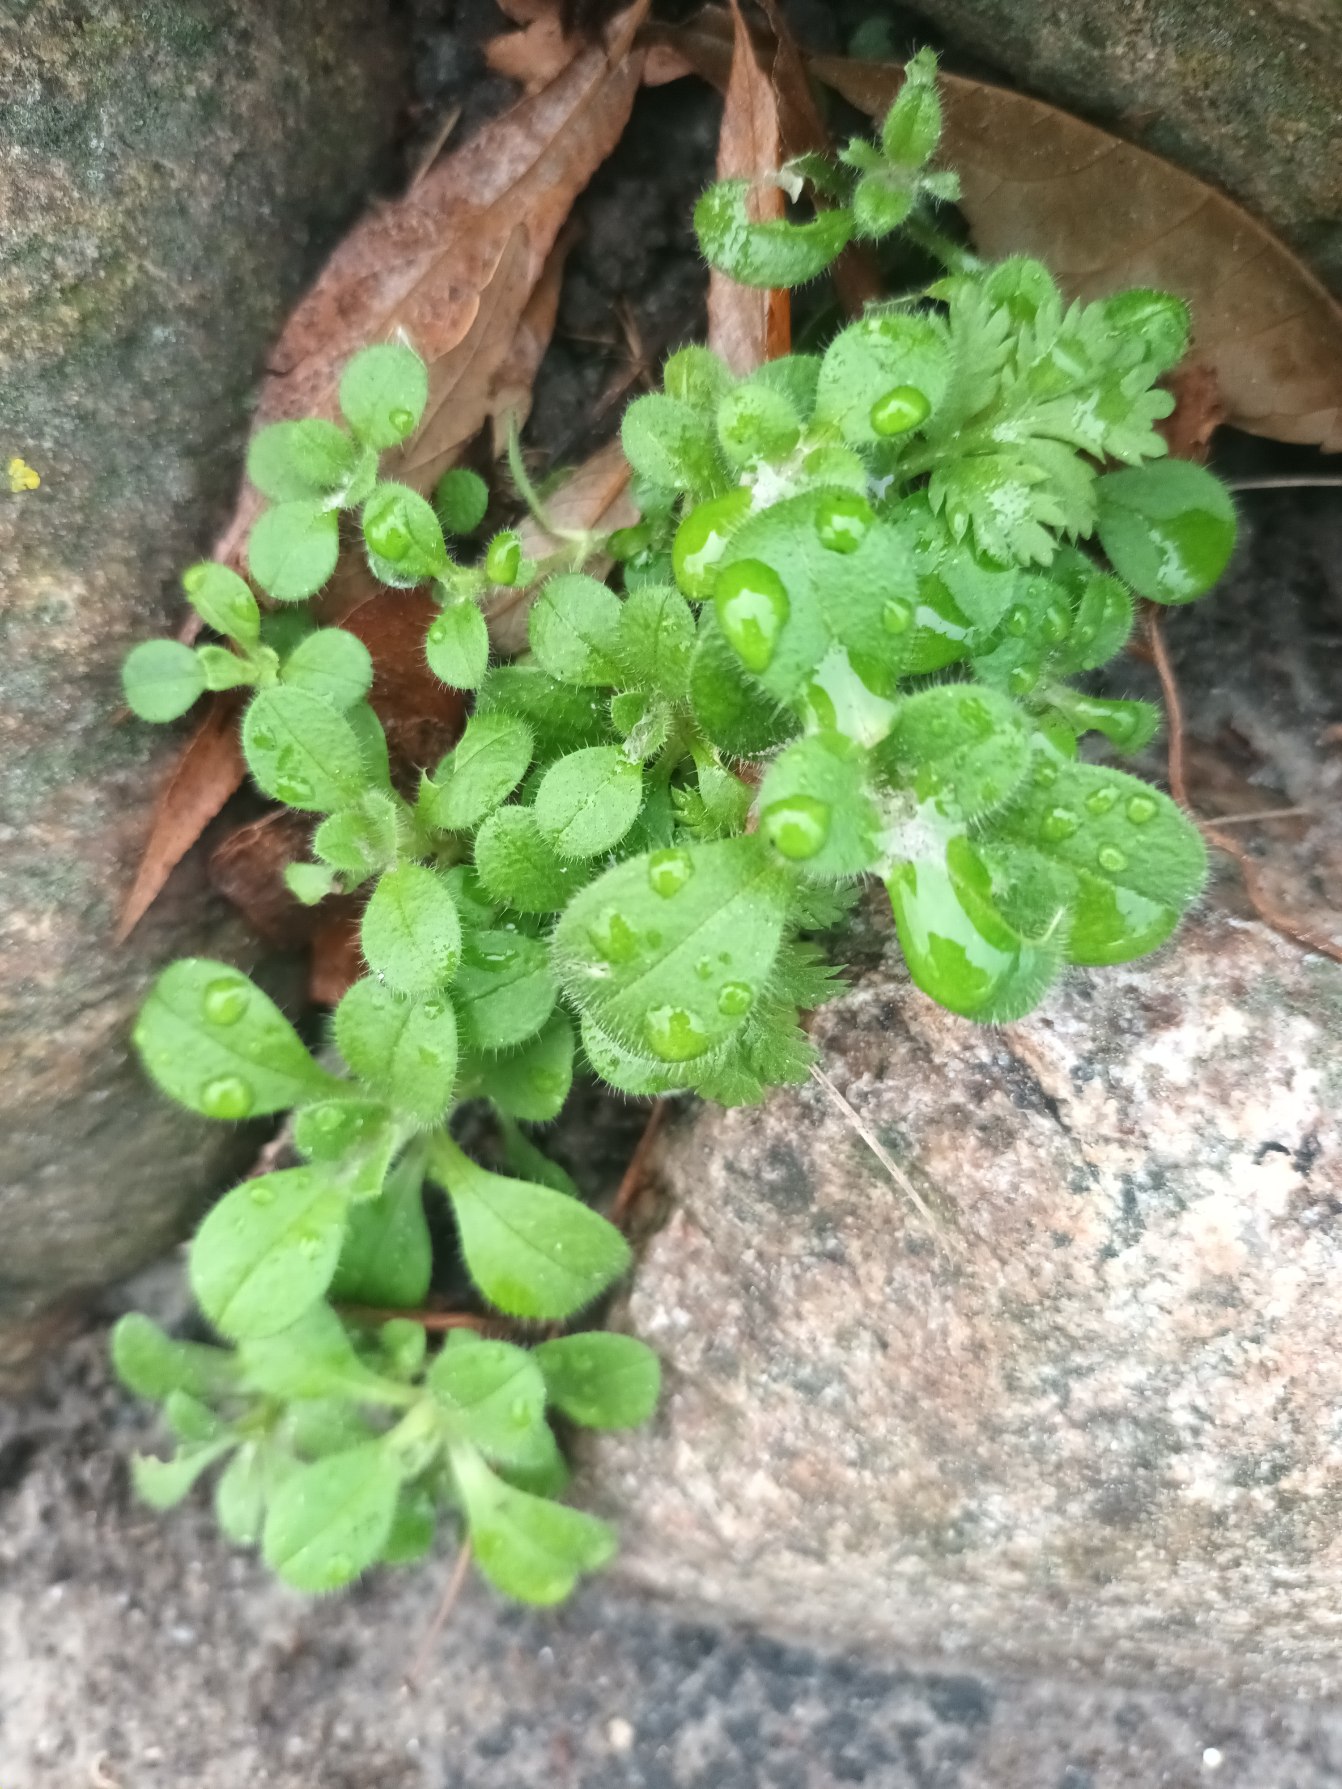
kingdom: Plantae
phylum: Tracheophyta
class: Magnoliopsida
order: Caryophyllales
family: Caryophyllaceae
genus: Cerastium
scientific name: Cerastium glomeratum
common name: Opret hønsetarm
